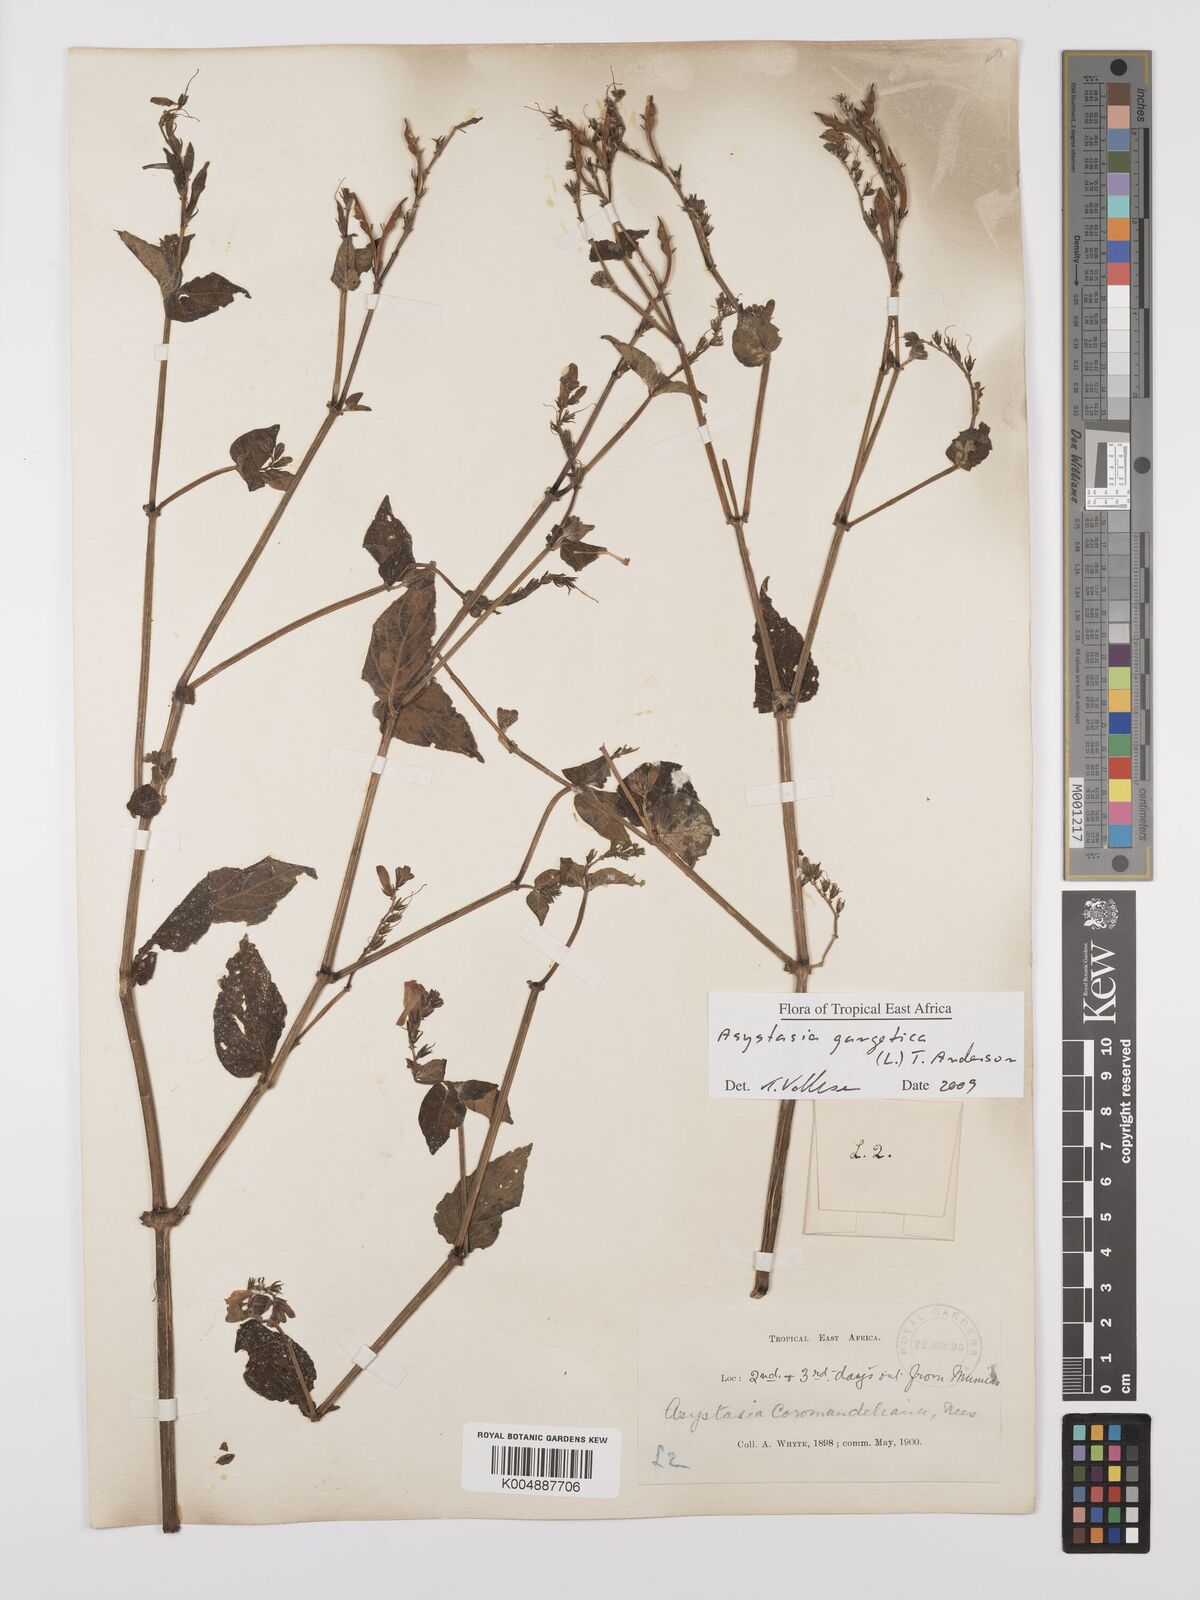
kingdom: Plantae
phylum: Tracheophyta
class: Magnoliopsida
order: Lamiales
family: Acanthaceae
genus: Asystasia
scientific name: Asystasia gangetica
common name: Chinese violet
